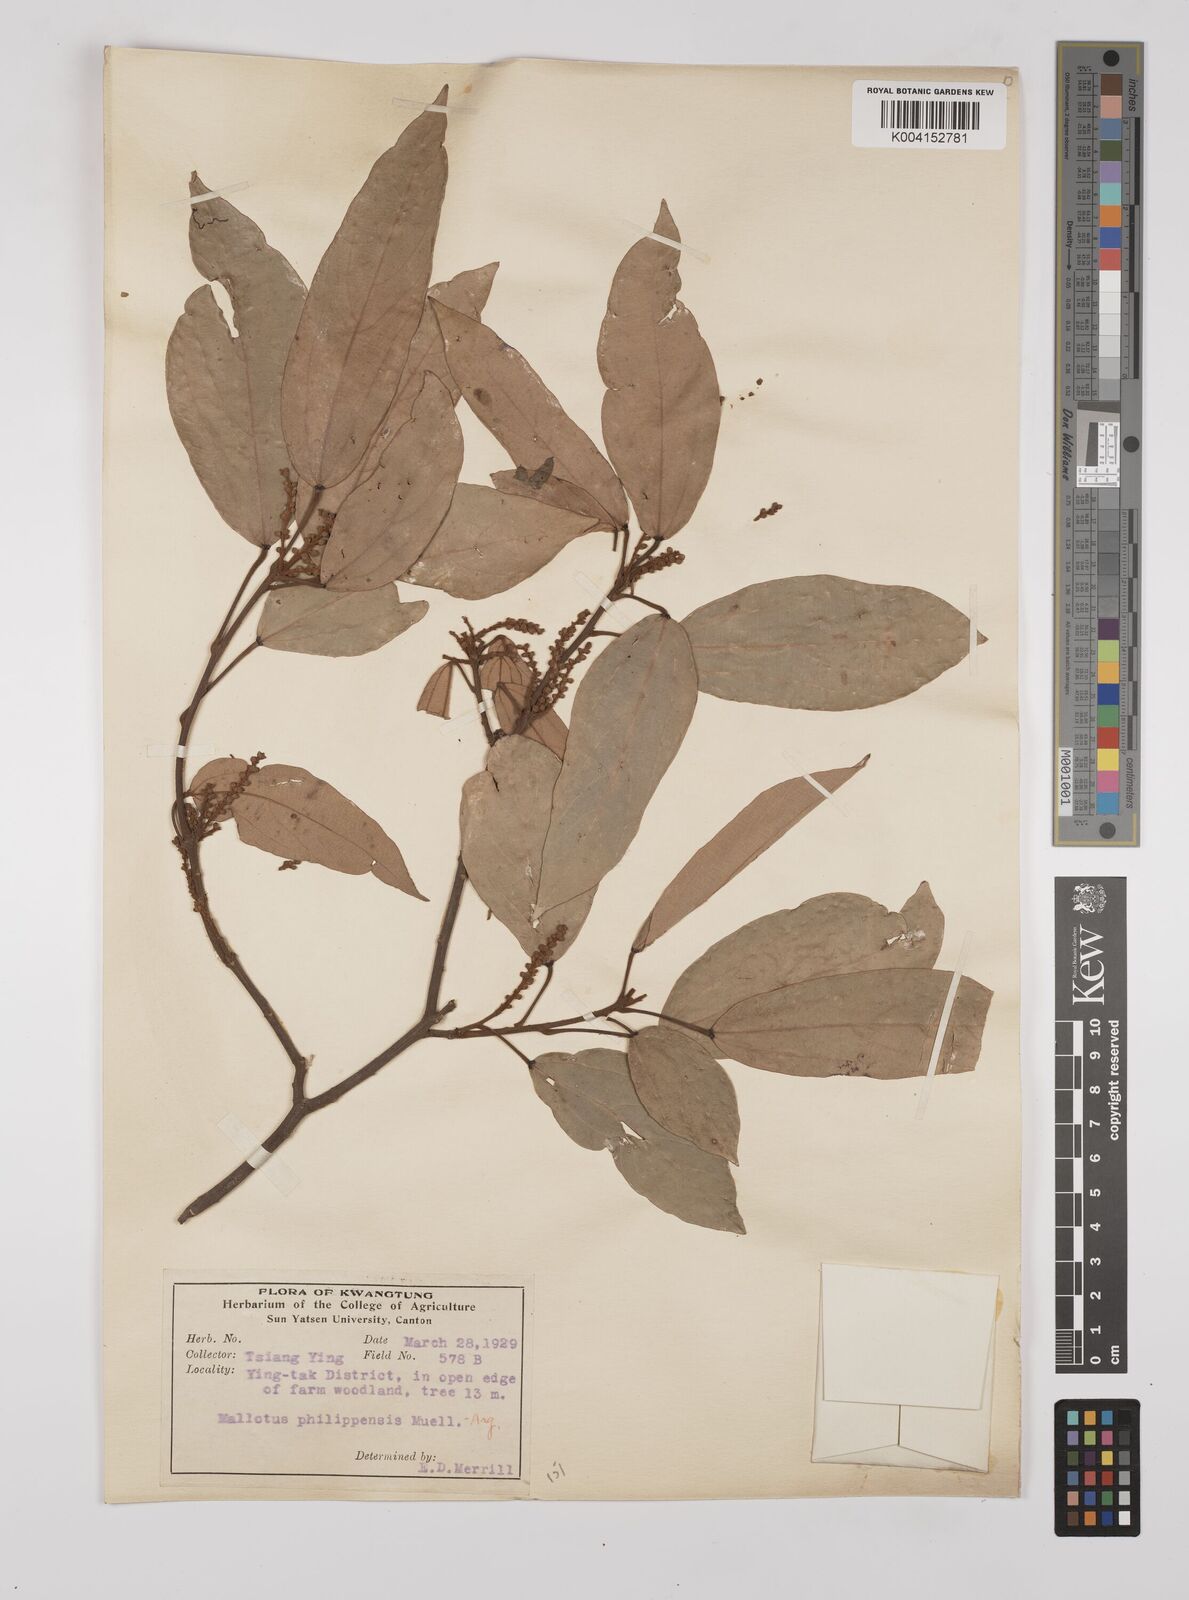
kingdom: Plantae
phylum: Tracheophyta
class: Magnoliopsida
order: Malpighiales
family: Euphorbiaceae
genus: Mallotus
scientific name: Mallotus philippensis
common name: Kamala tree
